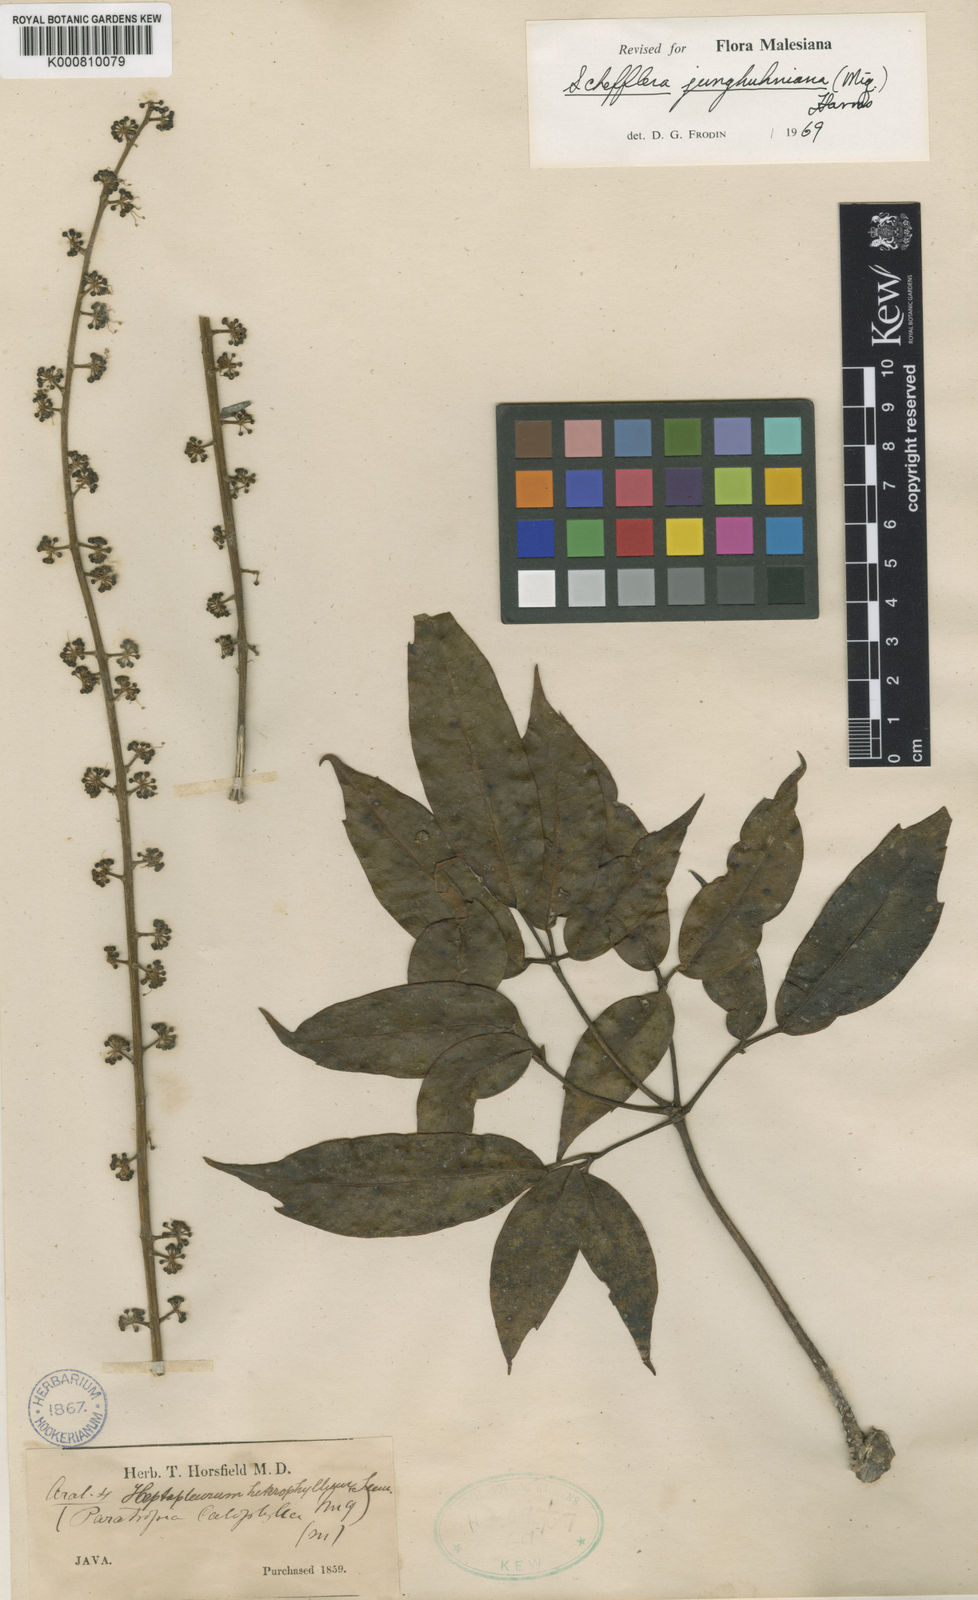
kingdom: Plantae
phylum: Tracheophyta
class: Magnoliopsida
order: Apiales
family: Araliaceae
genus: Heptapleurum
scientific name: Heptapleurum junghuhnianum
